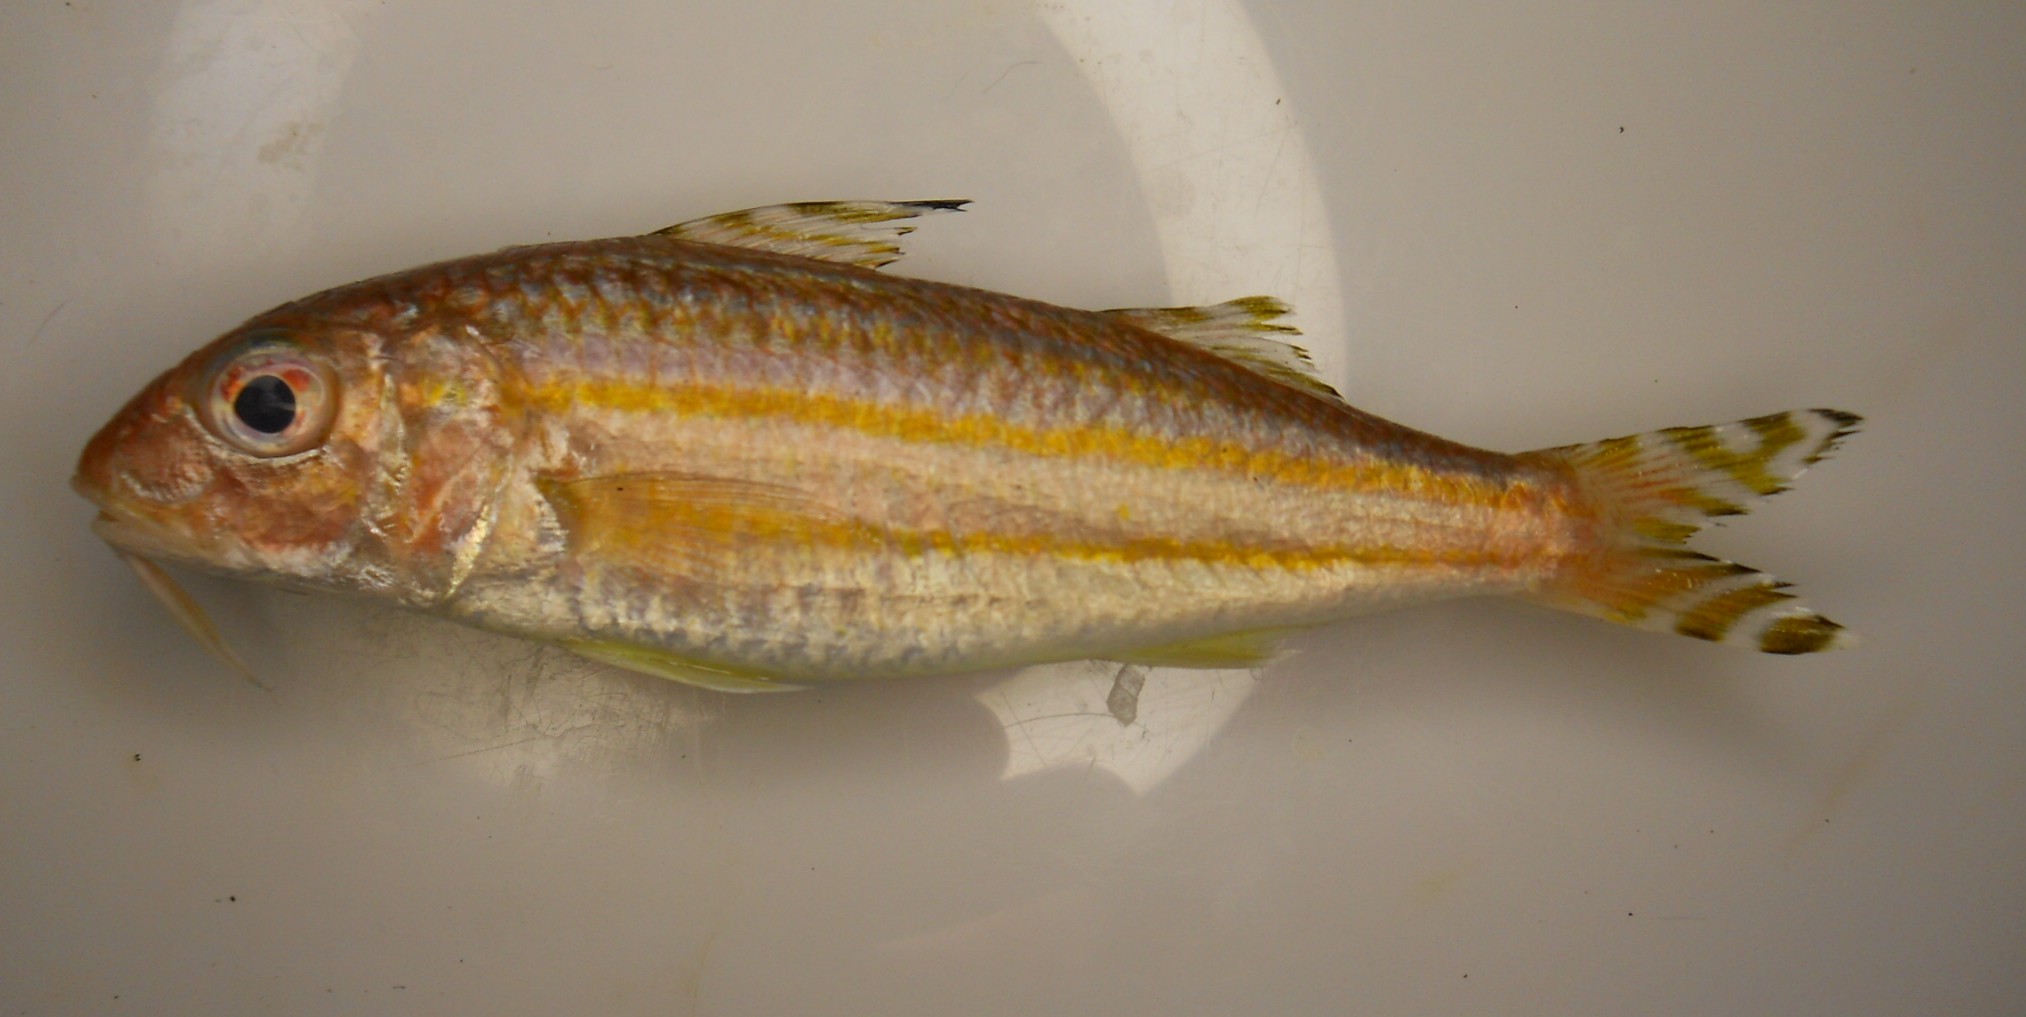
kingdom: Animalia
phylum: Chordata
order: Perciformes
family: Mullidae
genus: Upeneus
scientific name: Upeneus suahelicus
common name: Swahili goatfish
